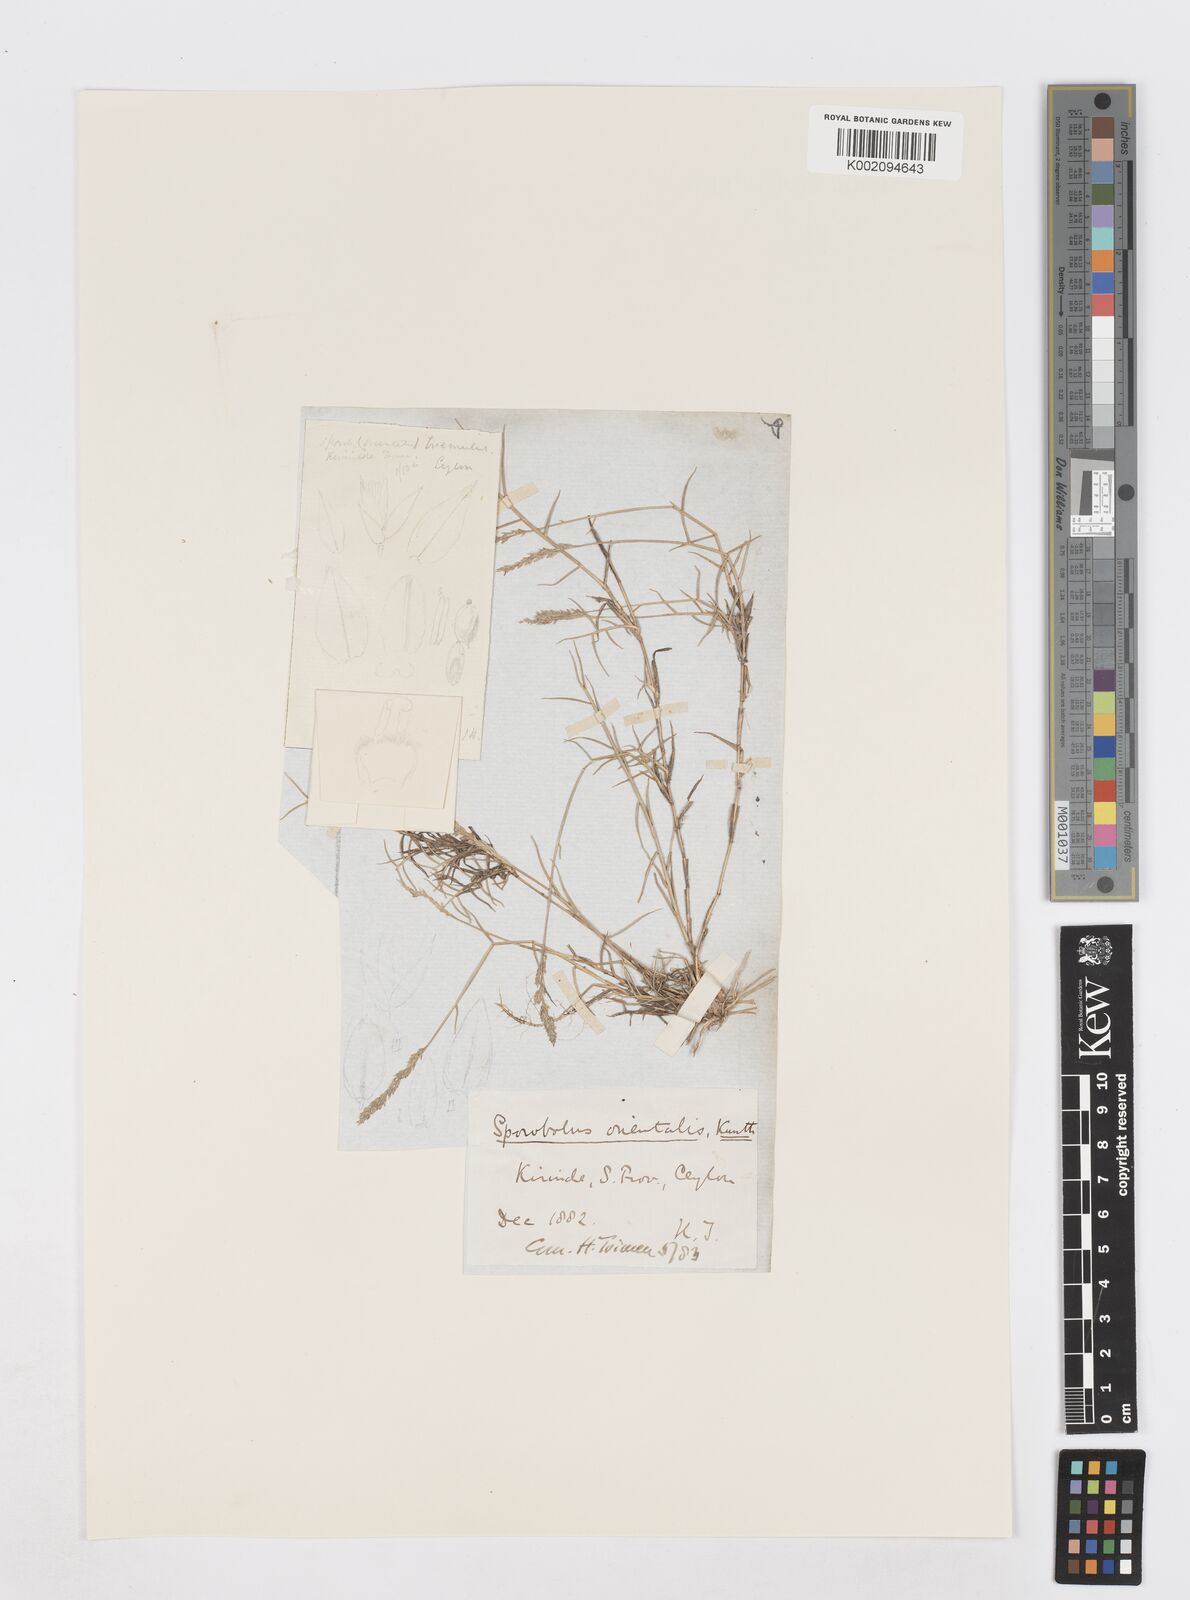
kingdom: Plantae
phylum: Tracheophyta
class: Liliopsida
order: Poales
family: Poaceae
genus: Sporobolus
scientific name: Sporobolus virginicus
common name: Beach dropseed
